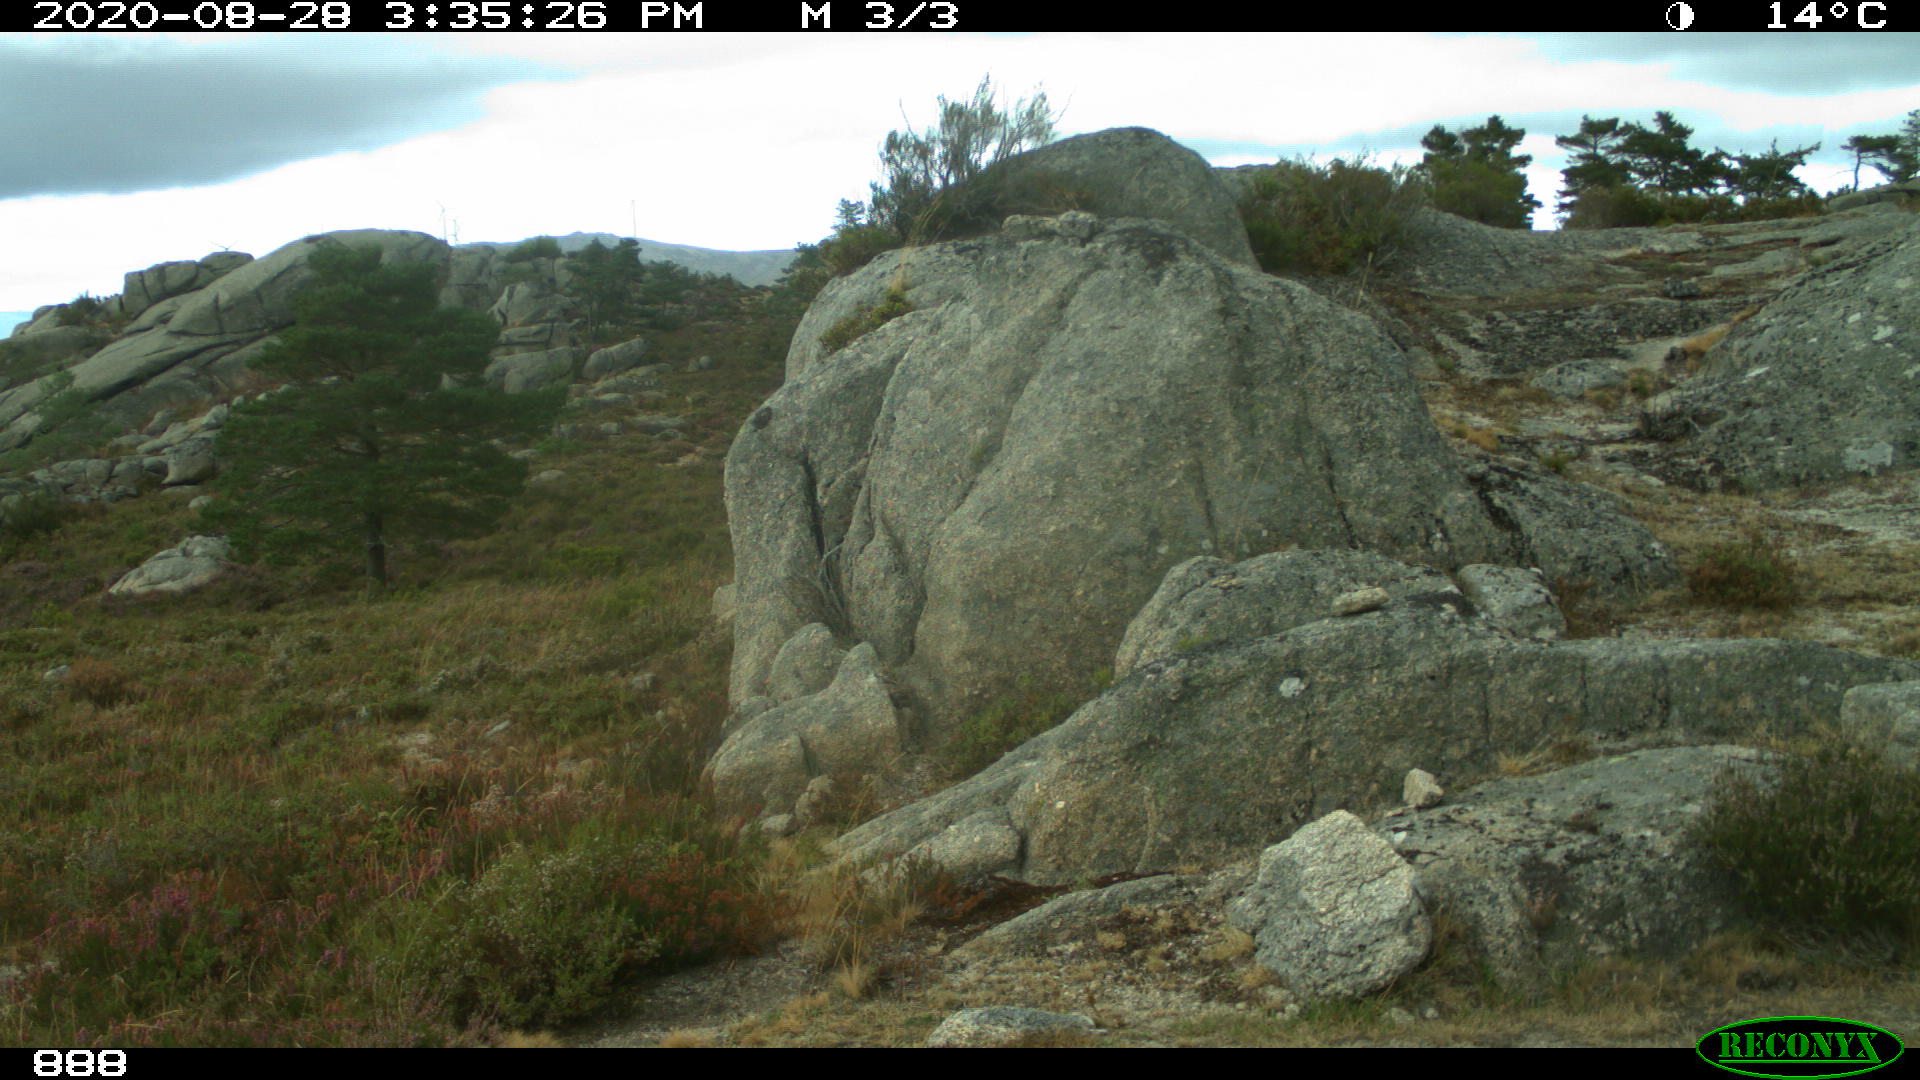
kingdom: Animalia
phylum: Chordata
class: Mammalia
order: Artiodactyla
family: Bovidae
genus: Bos
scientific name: Bos taurus
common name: Domesticated cattle
